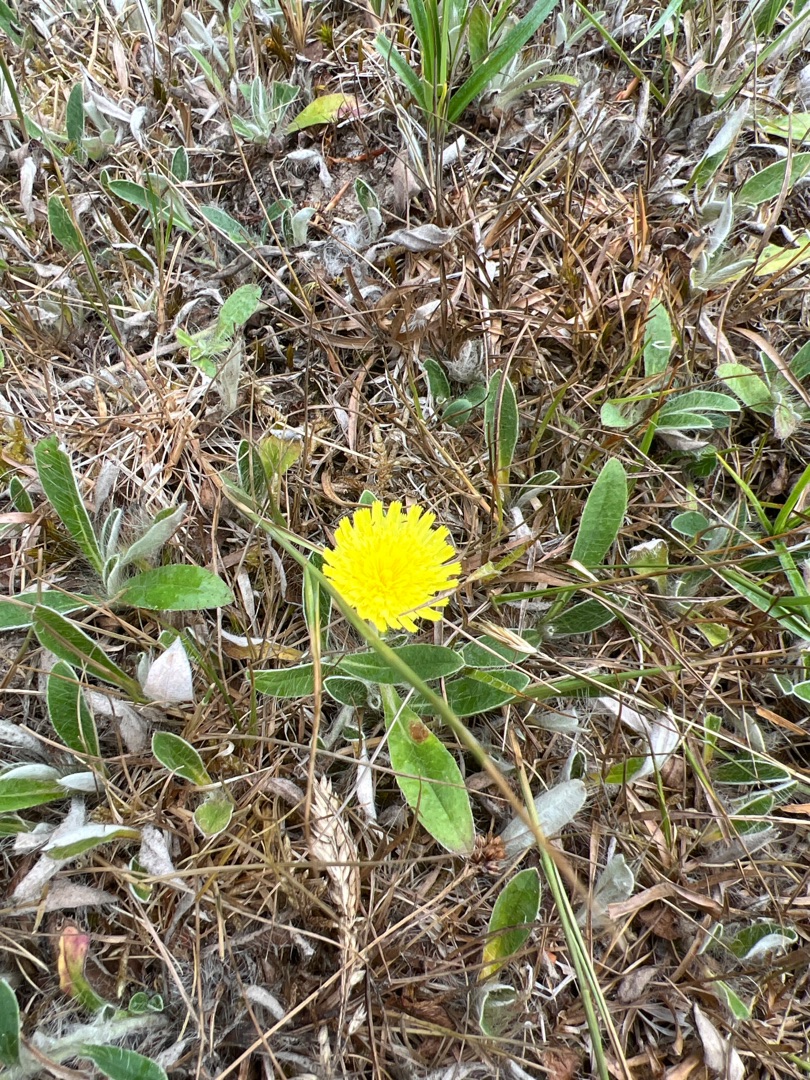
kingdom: Plantae
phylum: Tracheophyta
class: Magnoliopsida
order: Asterales
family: Asteraceae
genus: Pilosella
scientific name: Pilosella officinarum
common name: Håret høgeurt
